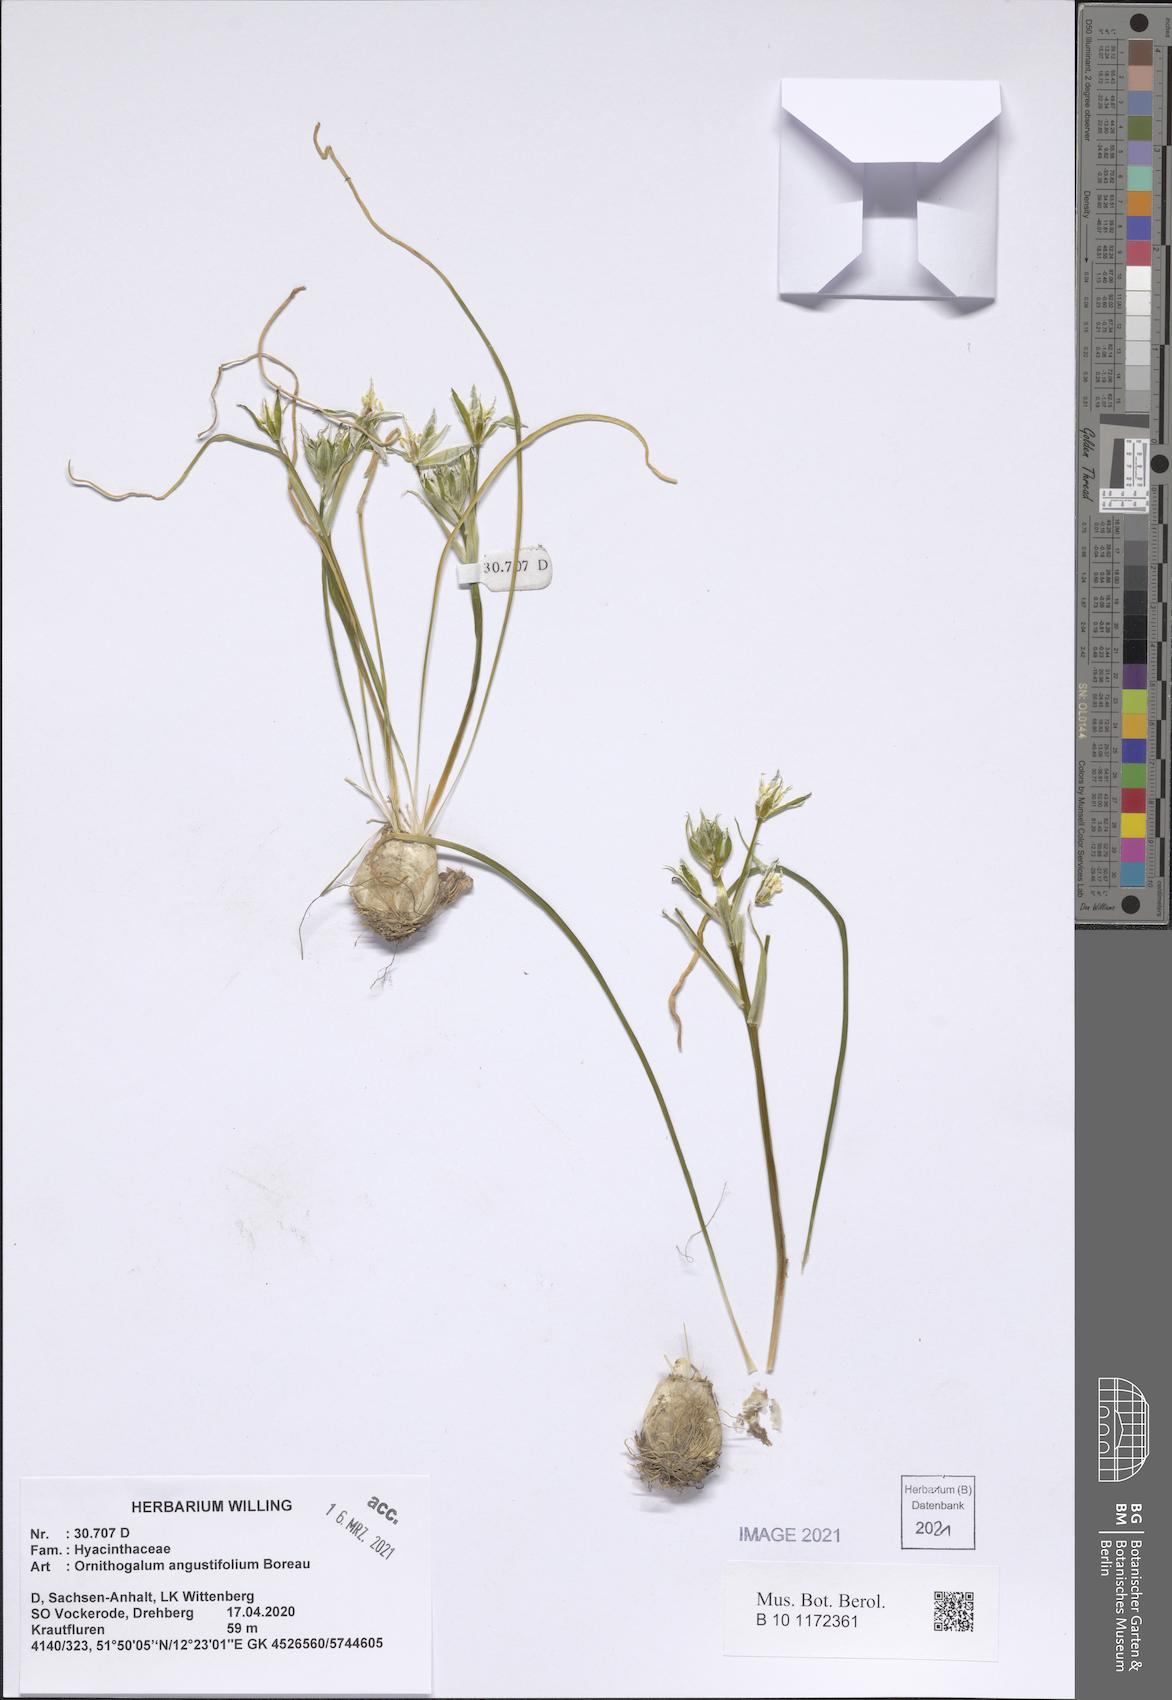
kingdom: Plantae
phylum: Tracheophyta
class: Liliopsida
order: Asparagales
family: Asparagaceae
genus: Ornithogalum
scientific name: Ornithogalum umbellatum
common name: Garden star-of-bethlehem
